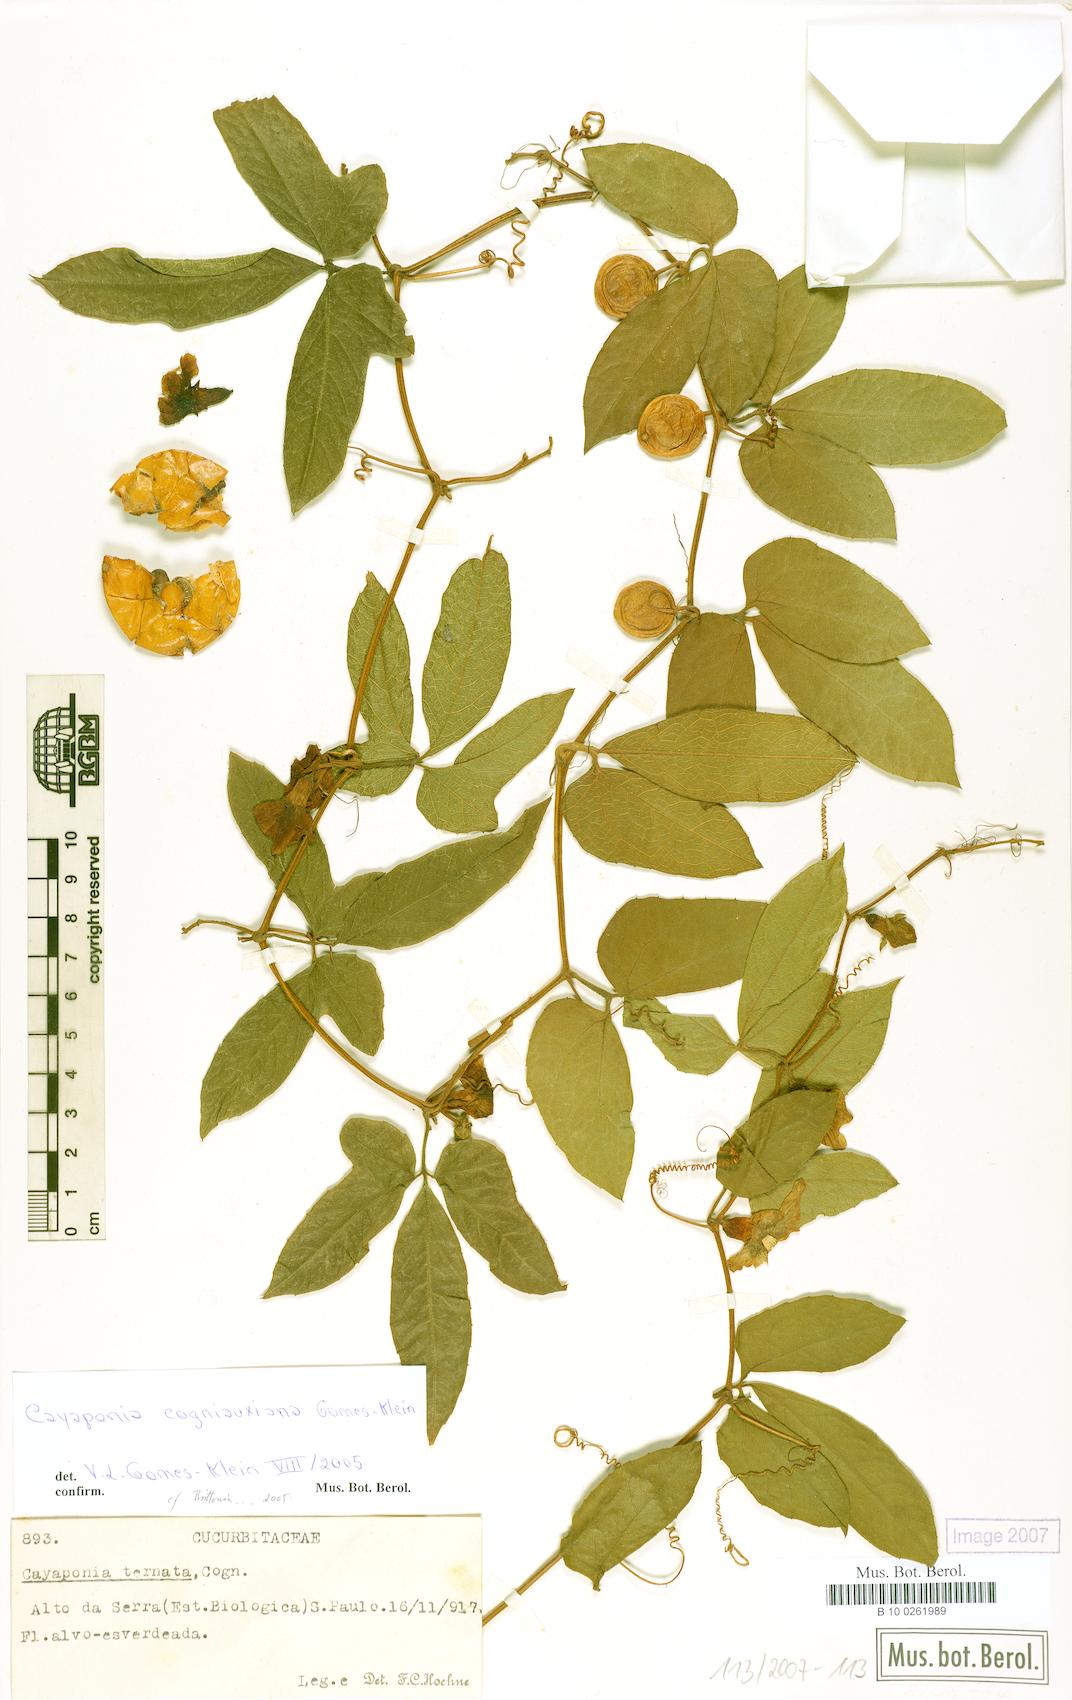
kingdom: Plantae
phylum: Tracheophyta
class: Magnoliopsida
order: Cucurbitales
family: Cucurbitaceae
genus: Cayaponia
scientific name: Cayaponia cogniauxiana
